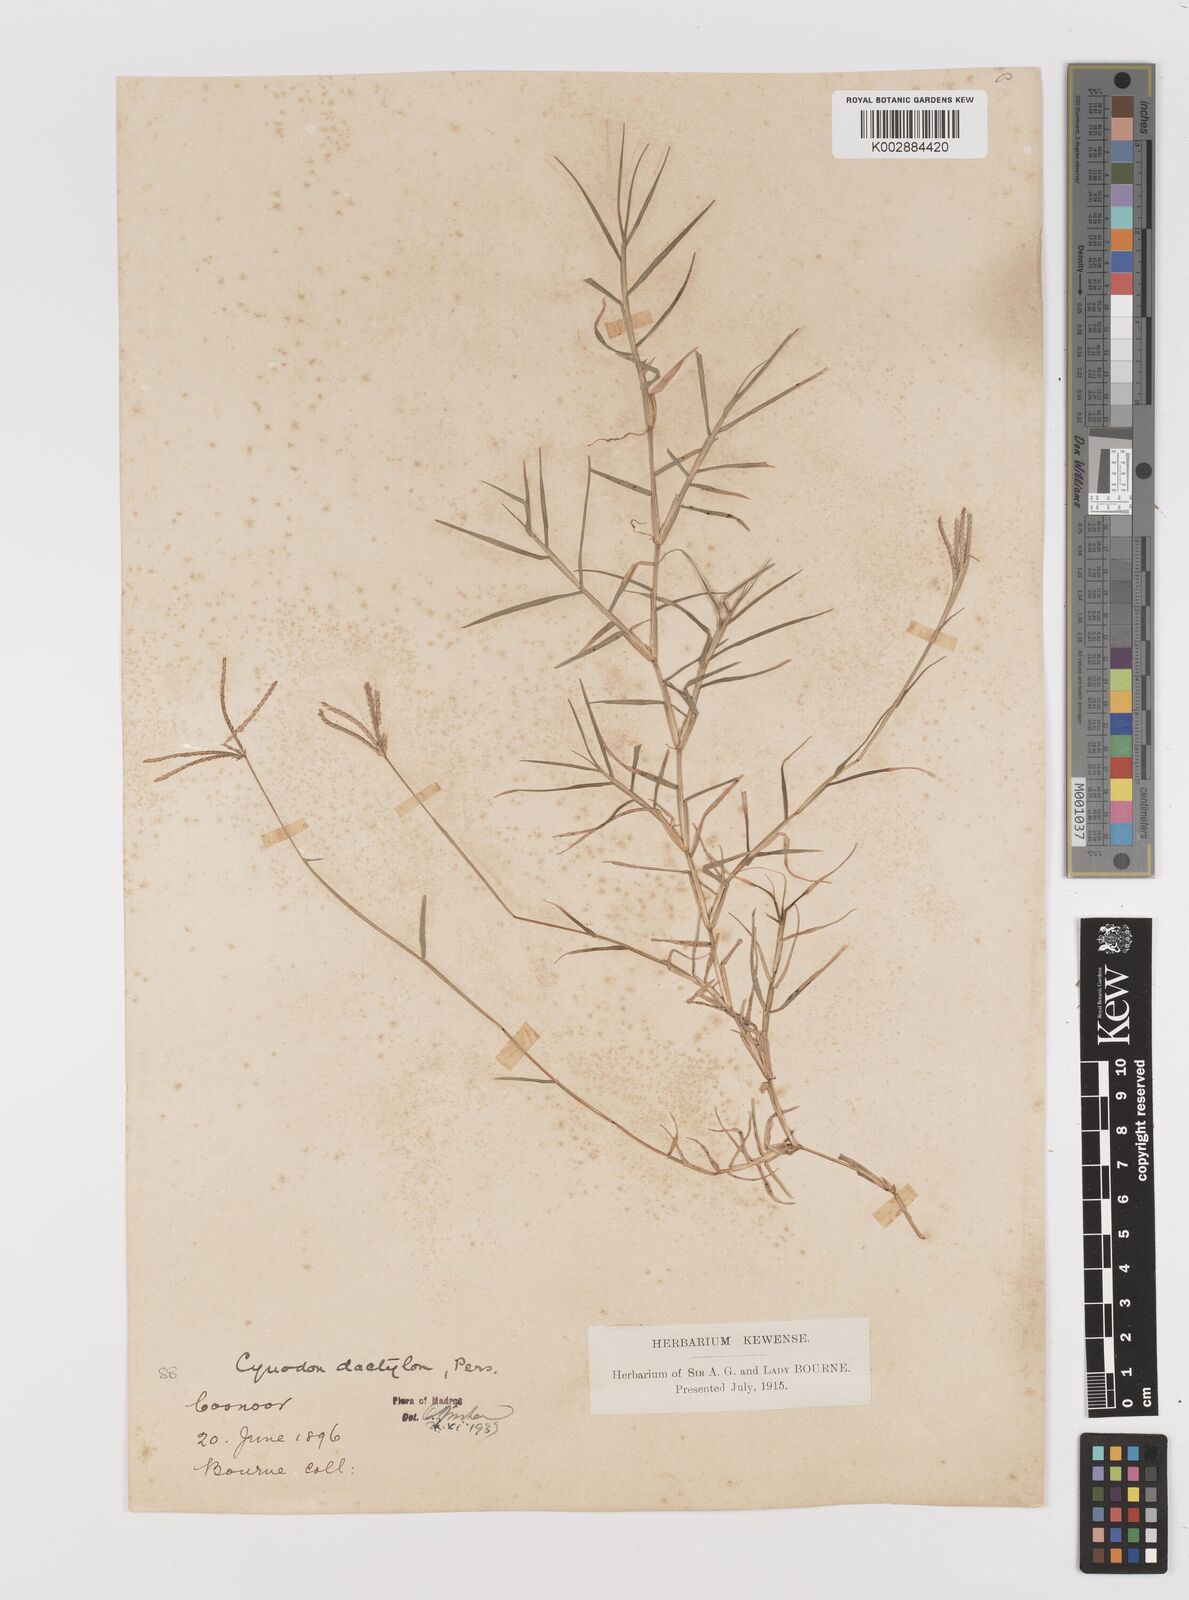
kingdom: Plantae
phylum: Tracheophyta
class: Liliopsida
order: Poales
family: Poaceae
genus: Cynodon
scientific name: Cynodon dactylon
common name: Bermuda grass
